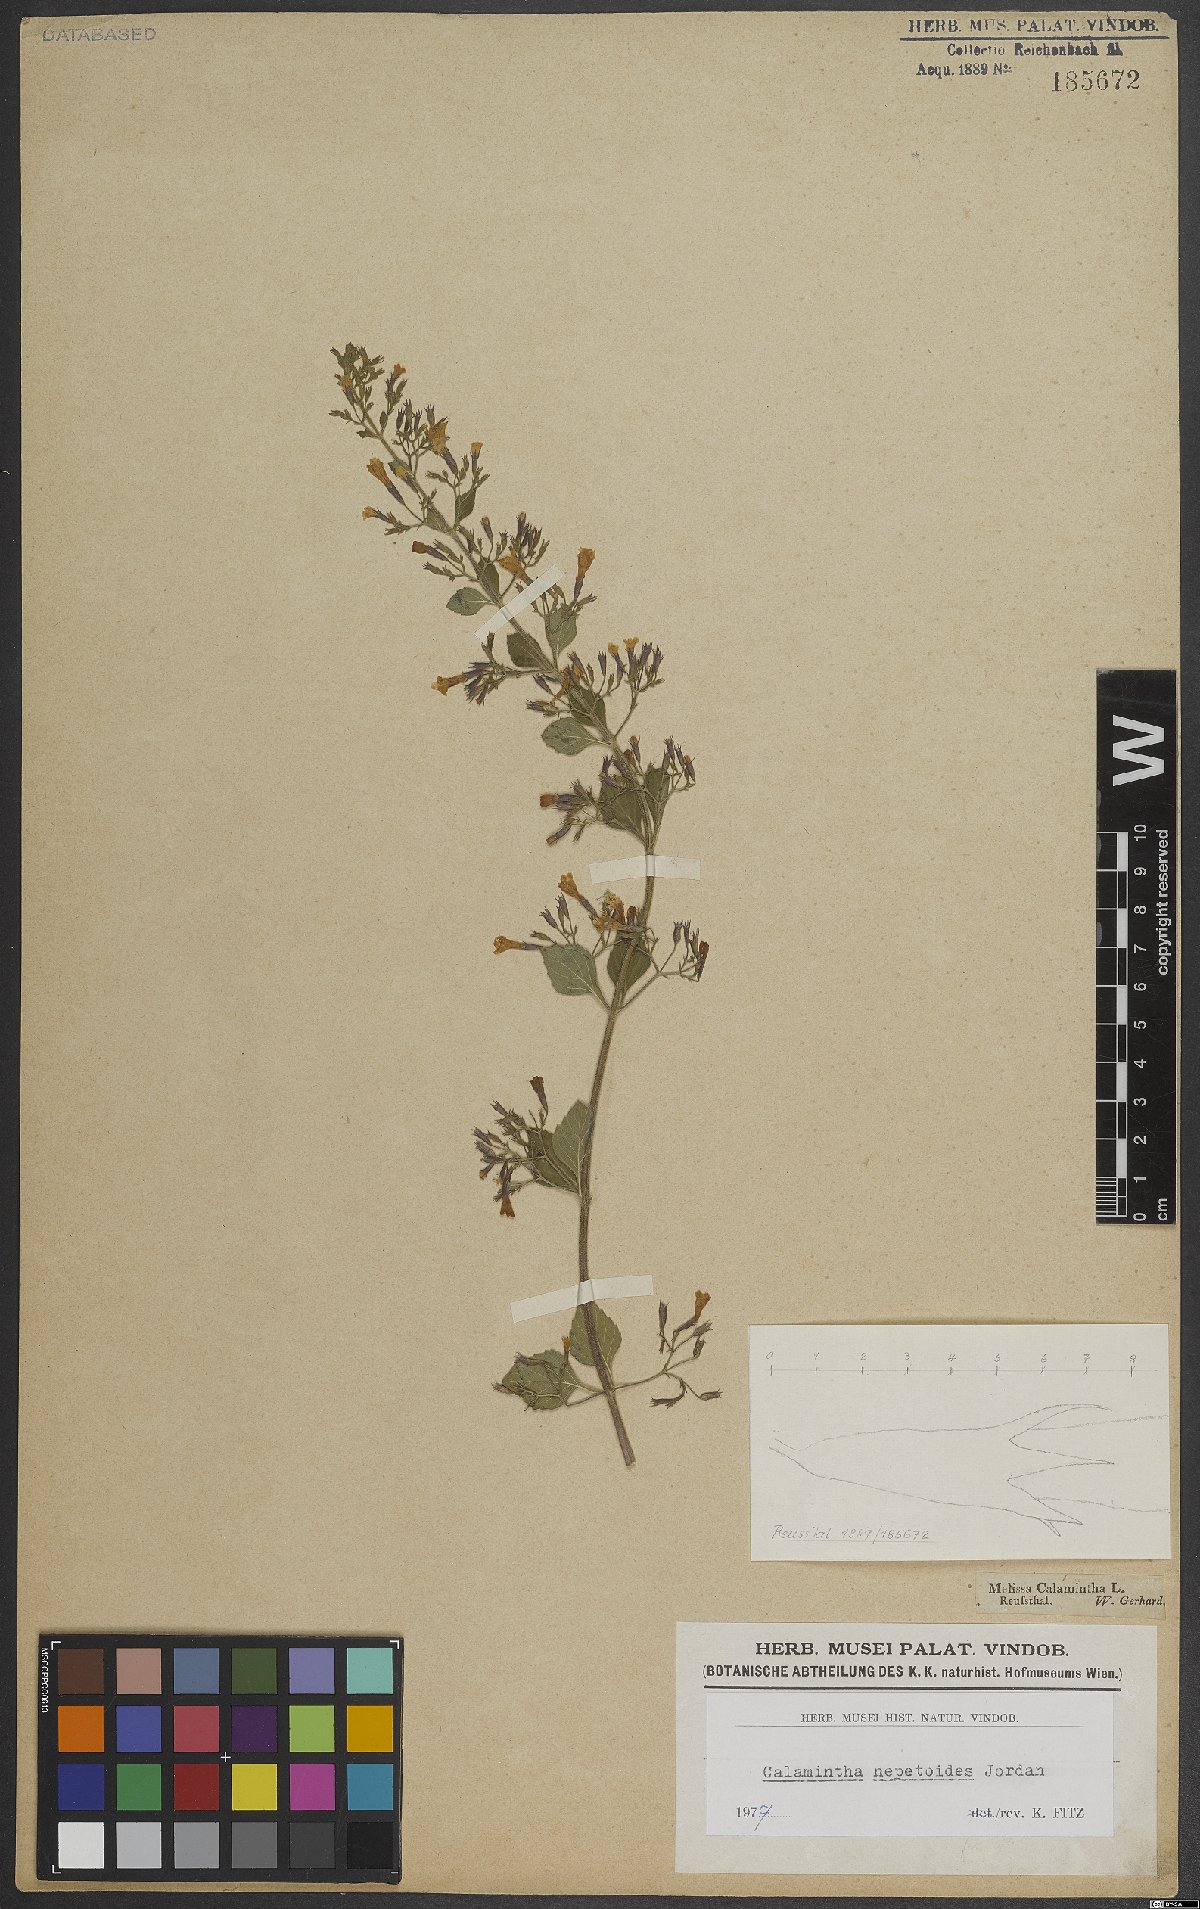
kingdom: Plantae
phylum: Tracheophyta
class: Magnoliopsida
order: Lamiales
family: Lamiaceae
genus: Clinopodium
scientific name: Clinopodium nepeta
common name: Lesser calamint
